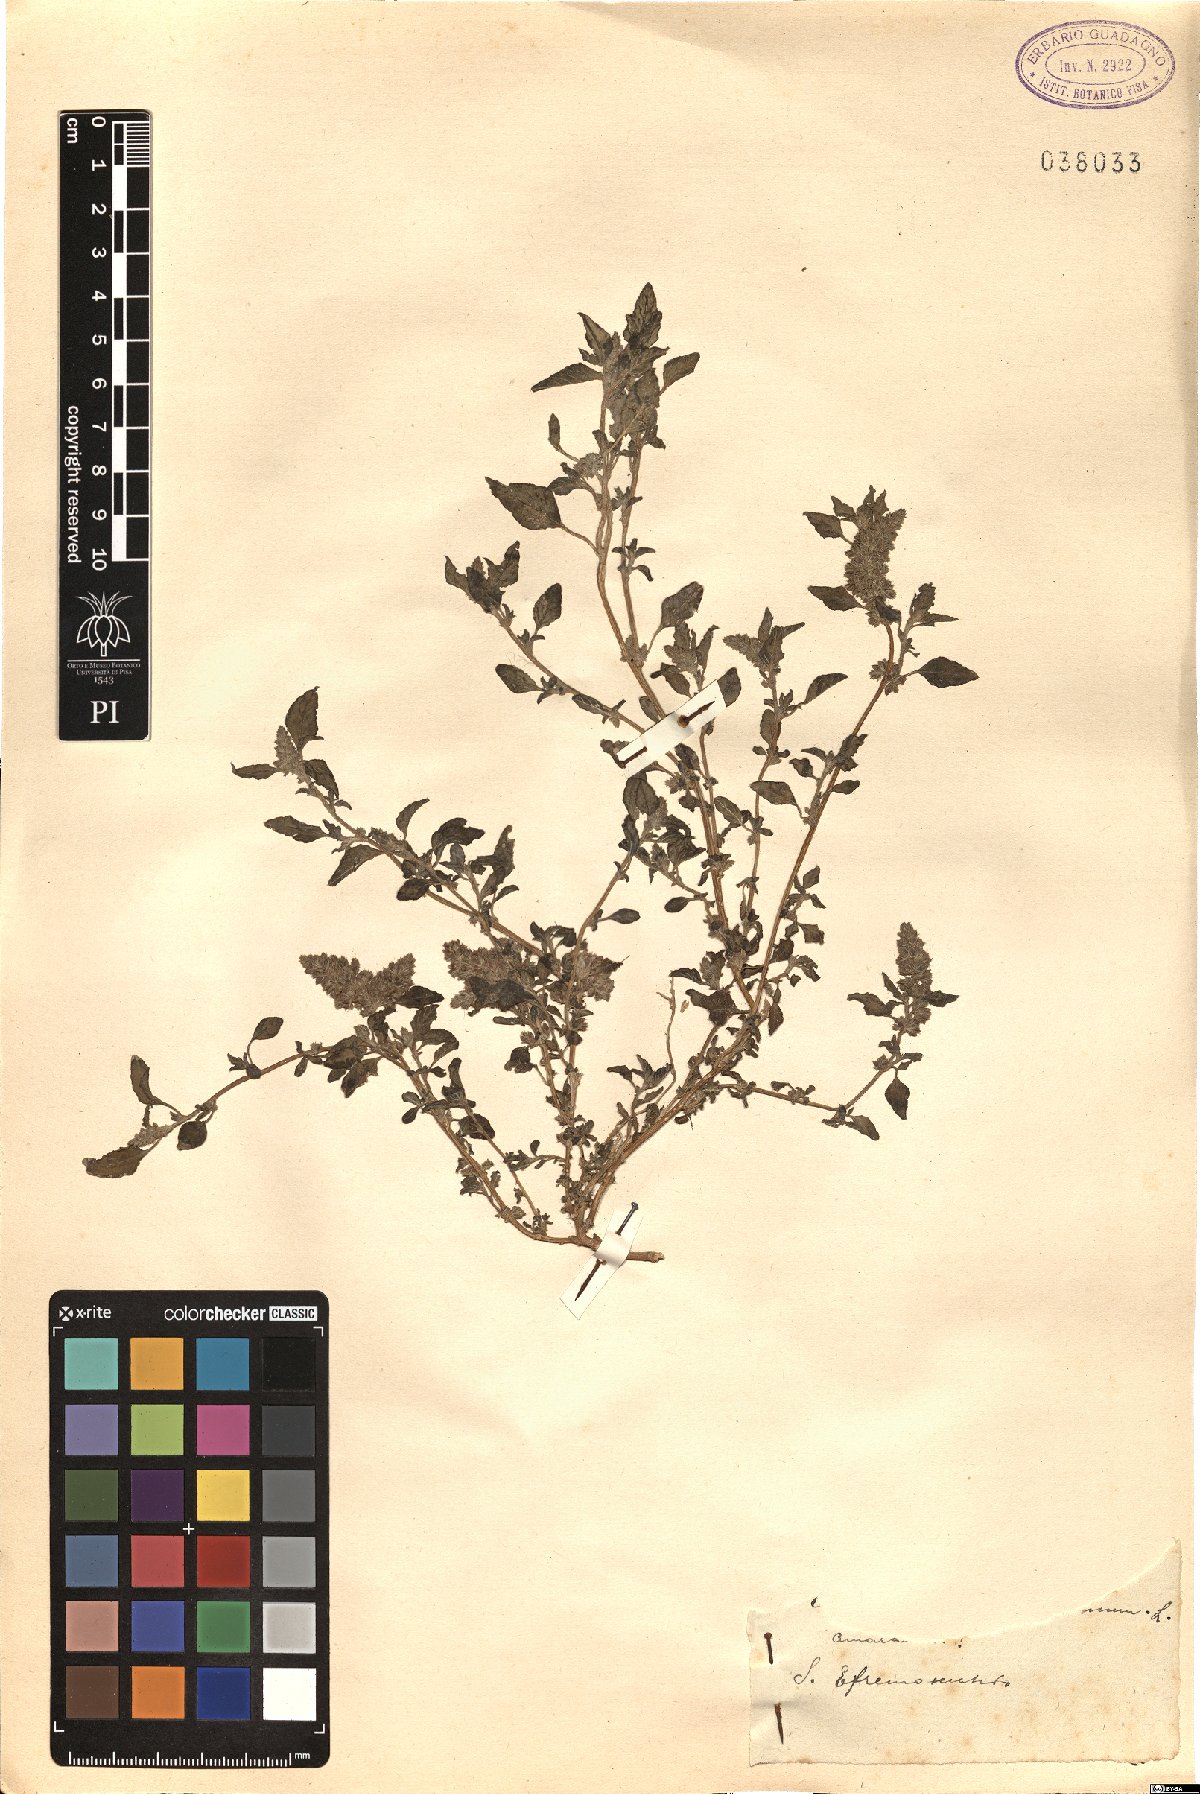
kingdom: Plantae
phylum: Tracheophyta
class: Magnoliopsida
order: Caryophyllales
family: Amaranthaceae
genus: Amaranthus
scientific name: Amaranthus
